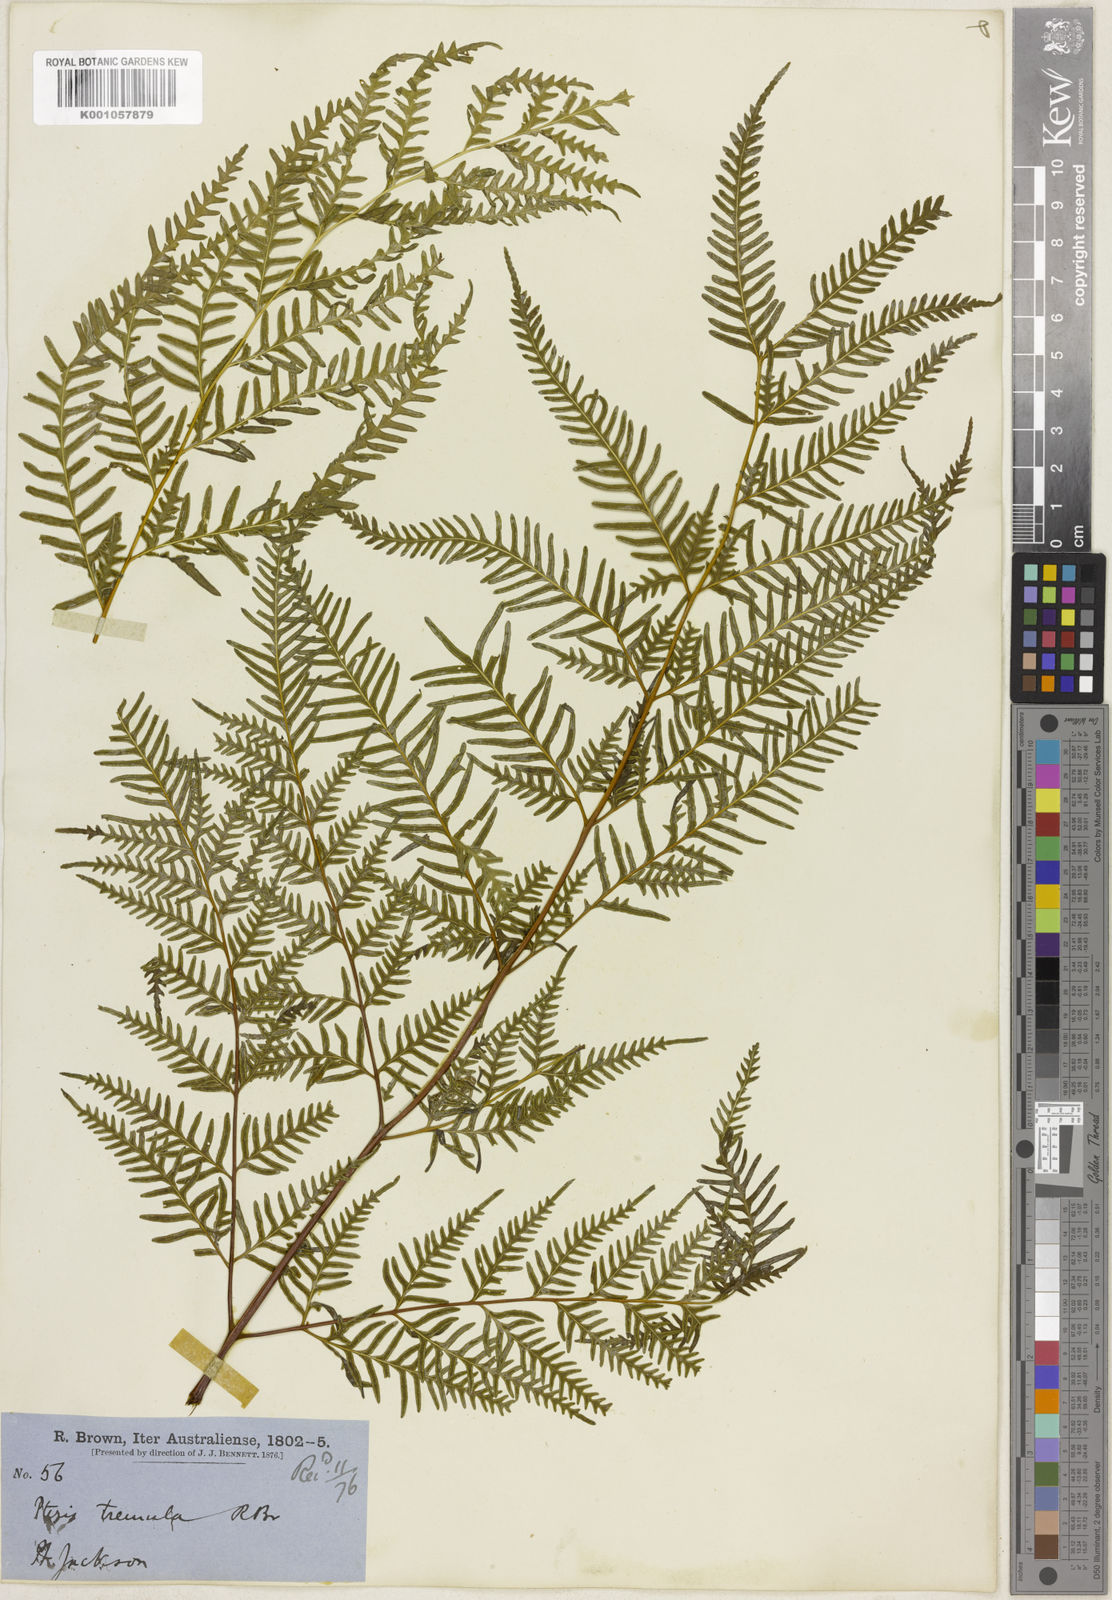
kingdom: Plantae
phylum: Tracheophyta
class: Polypodiopsida
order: Polypodiales
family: Pteridaceae
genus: Pteris
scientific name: Pteris tremula
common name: Australian brake
